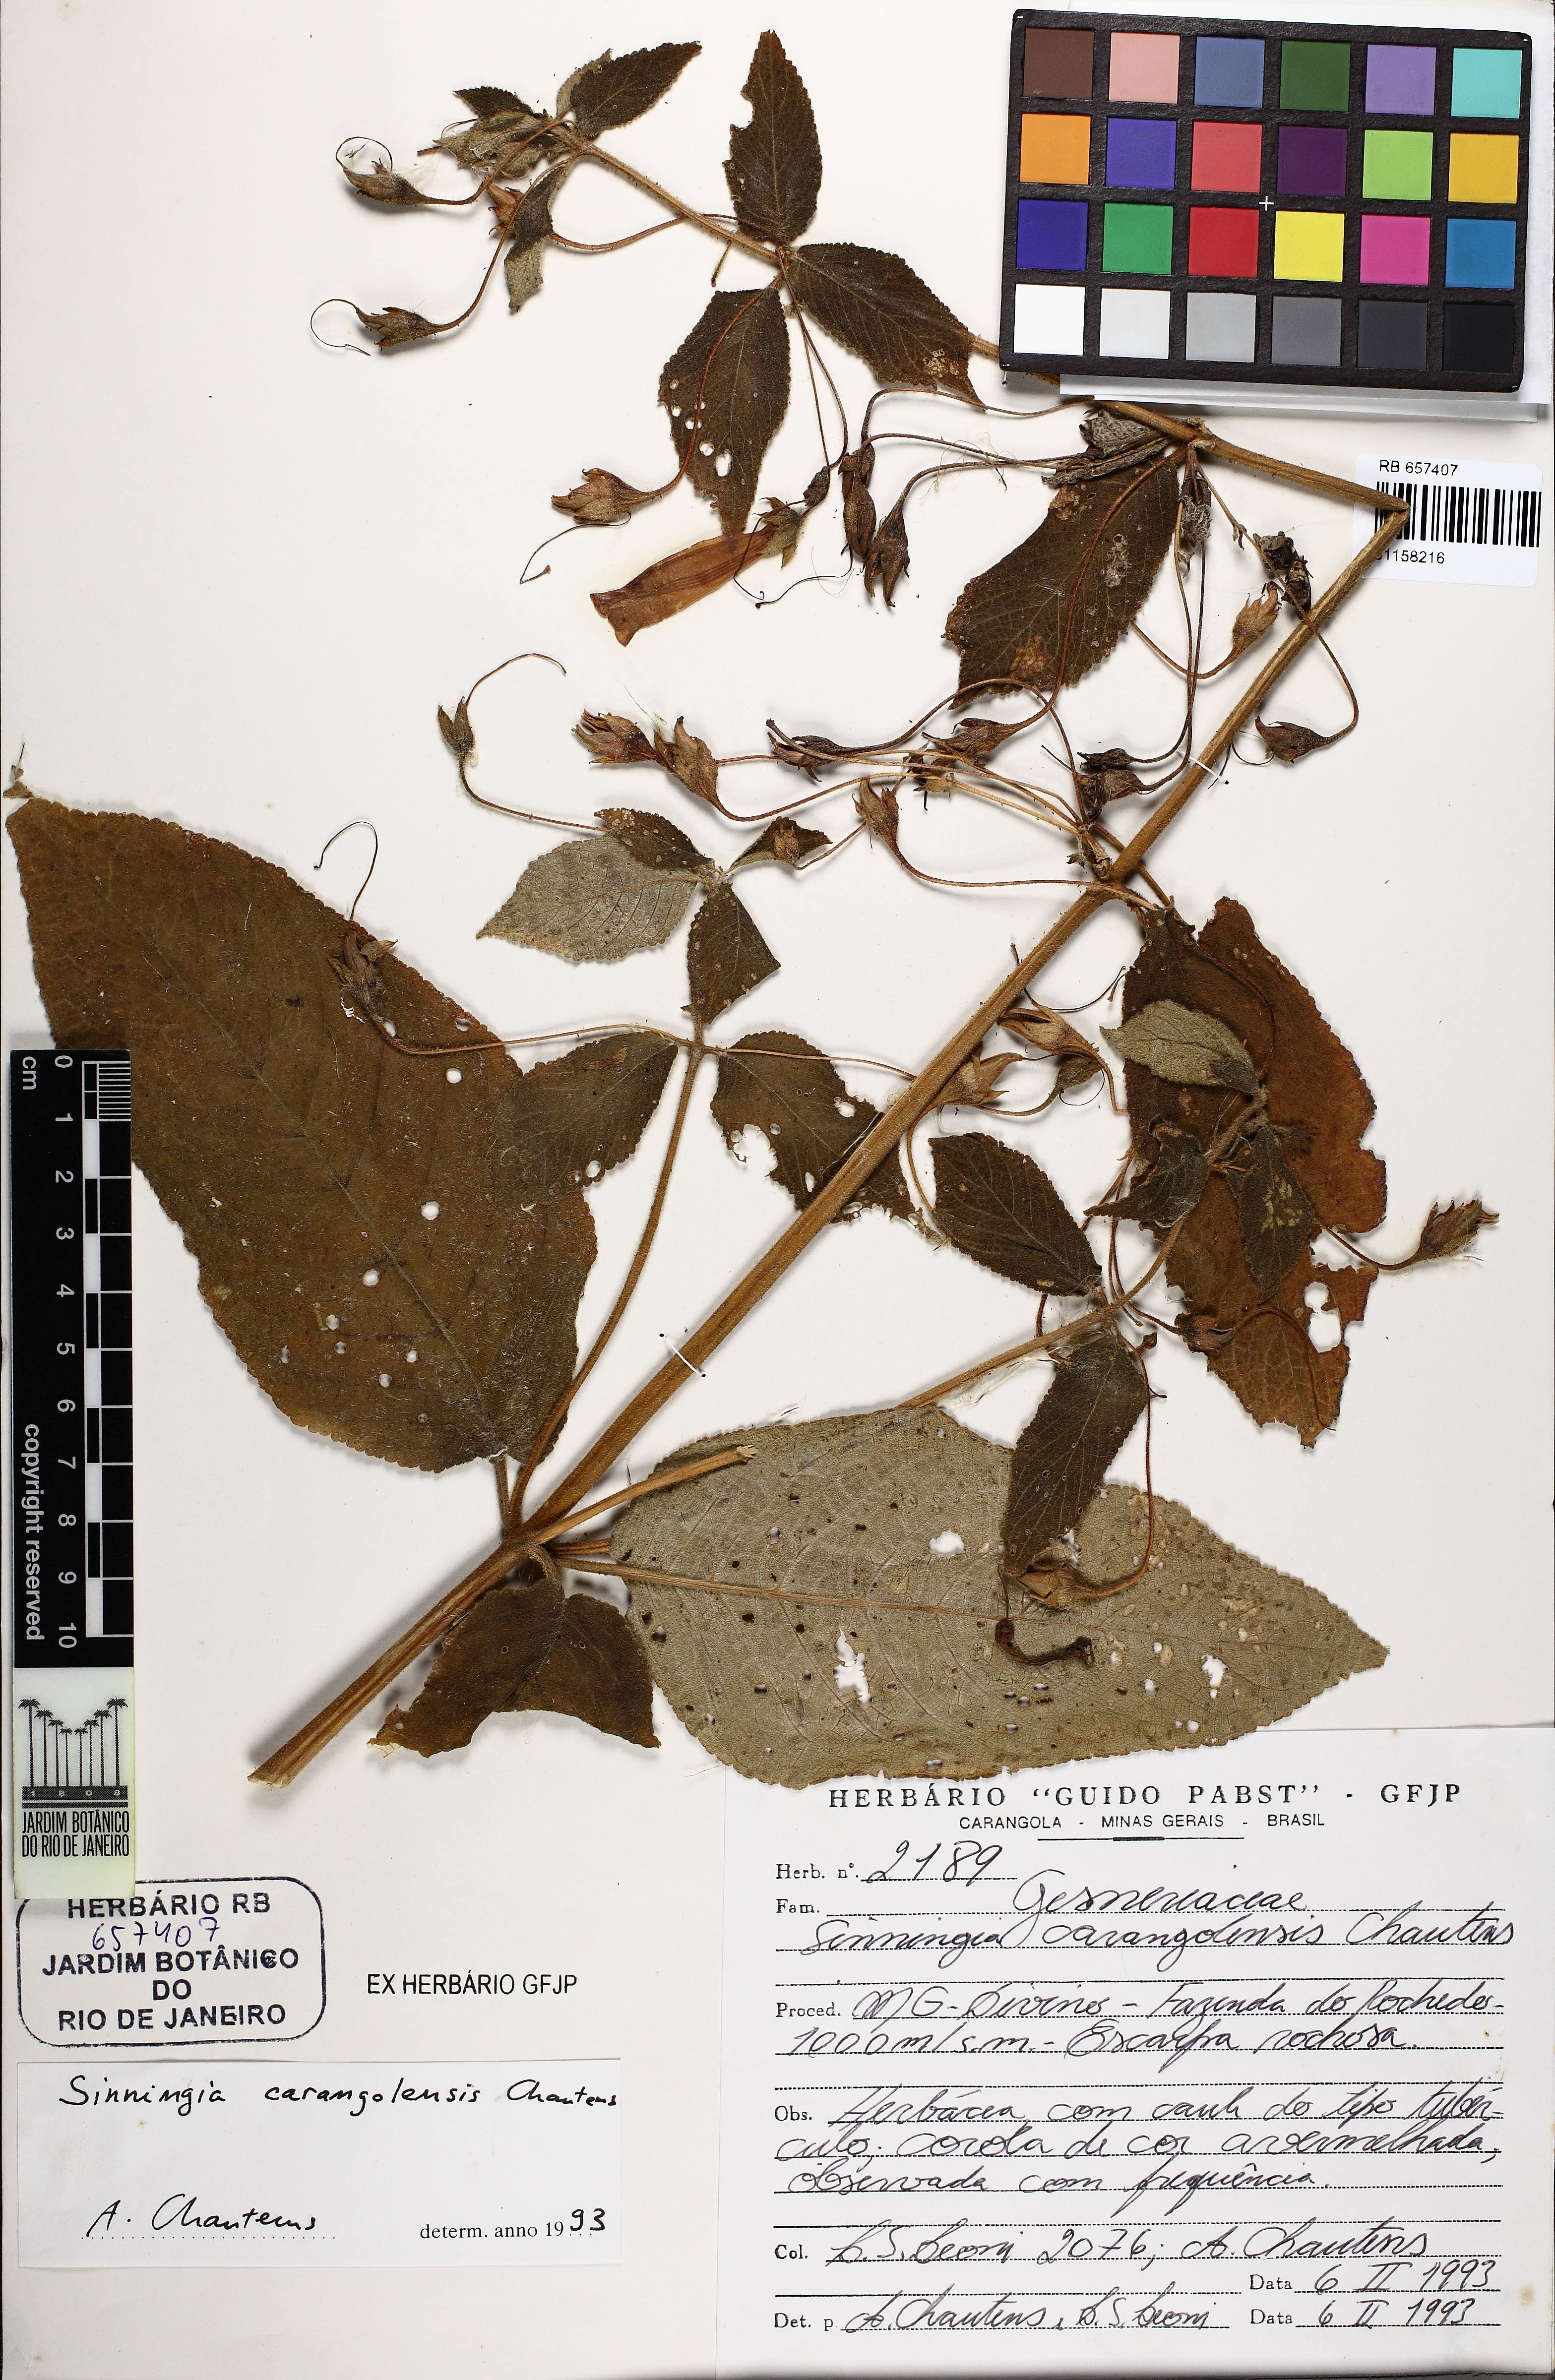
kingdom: Plantae
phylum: Tracheophyta
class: Magnoliopsida
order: Lamiales
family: Gesneriaceae
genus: Sinningia
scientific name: Sinningia carangolensis
